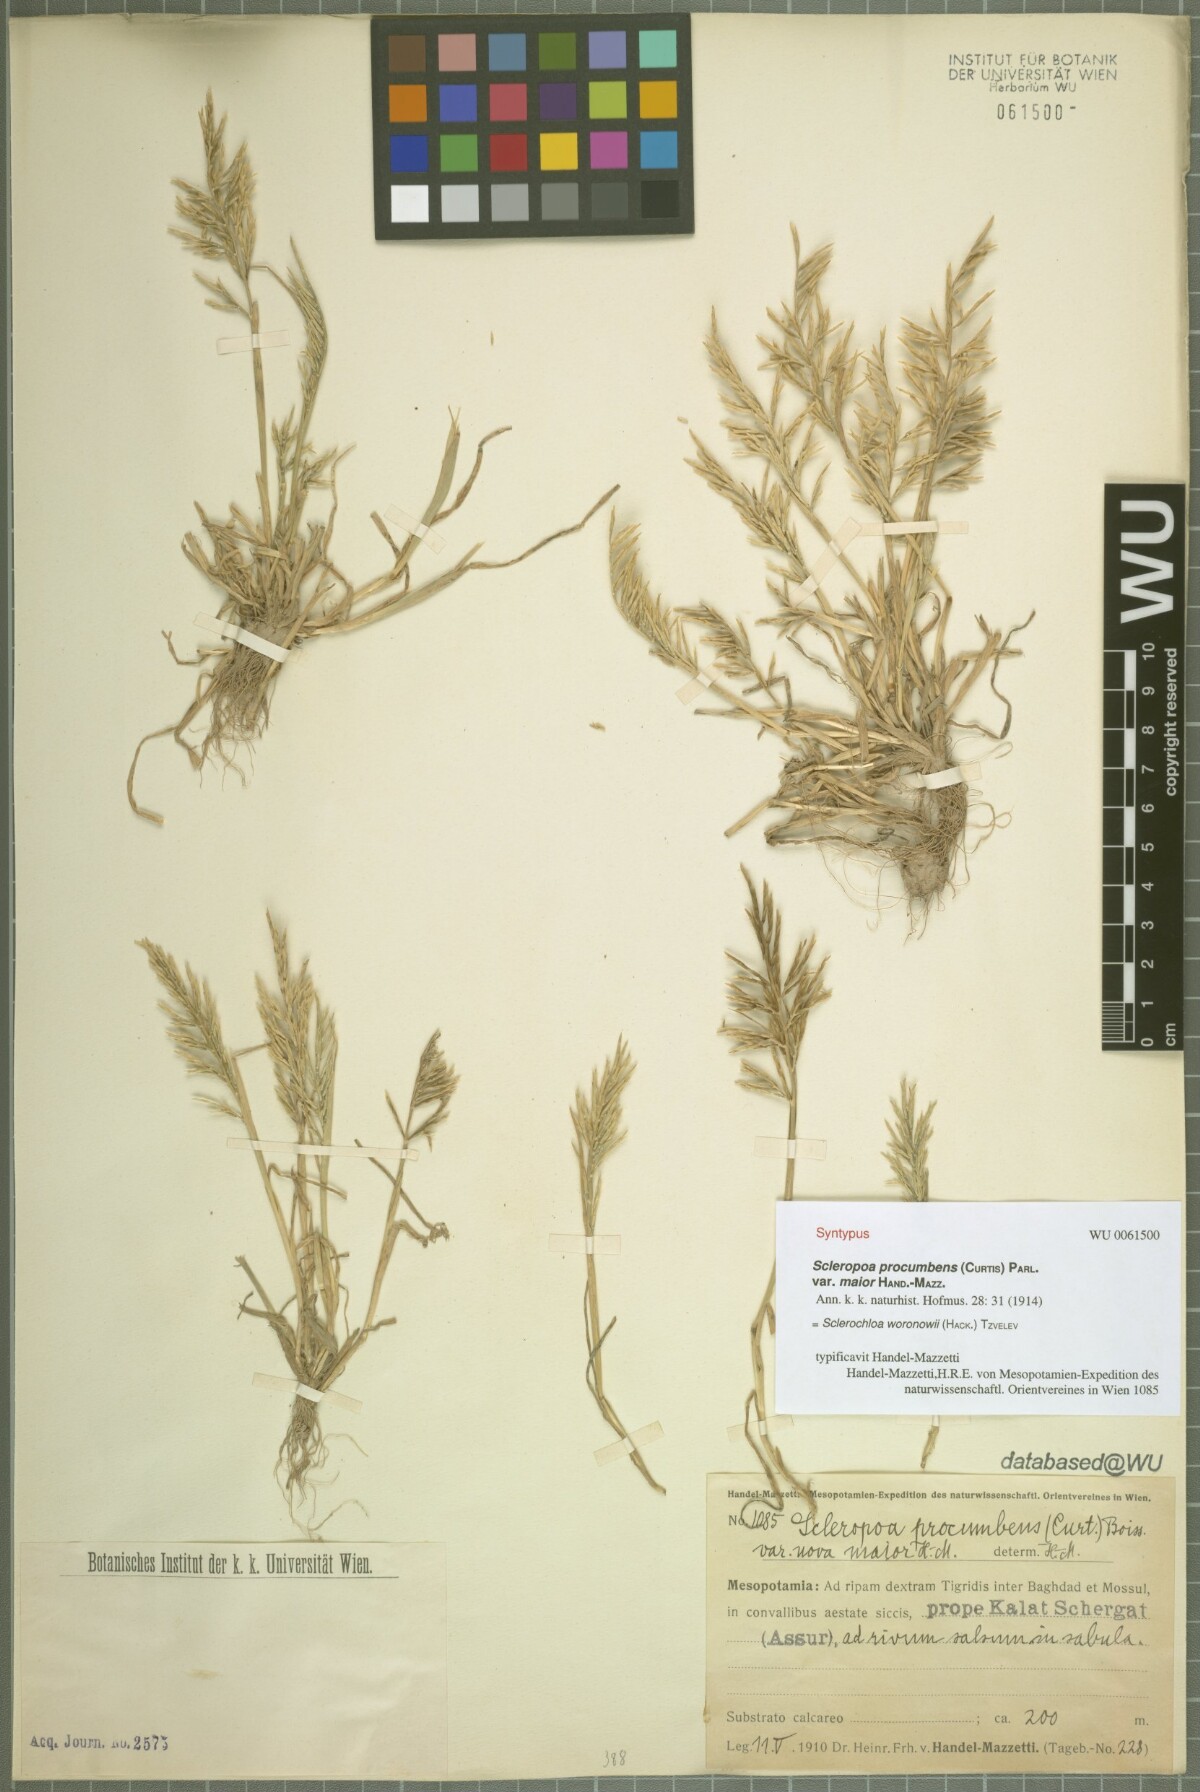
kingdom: Plantae
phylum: Tracheophyta
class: Liliopsida
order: Poales
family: Poaceae
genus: Sclerochloa
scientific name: Sclerochloa woronowii
